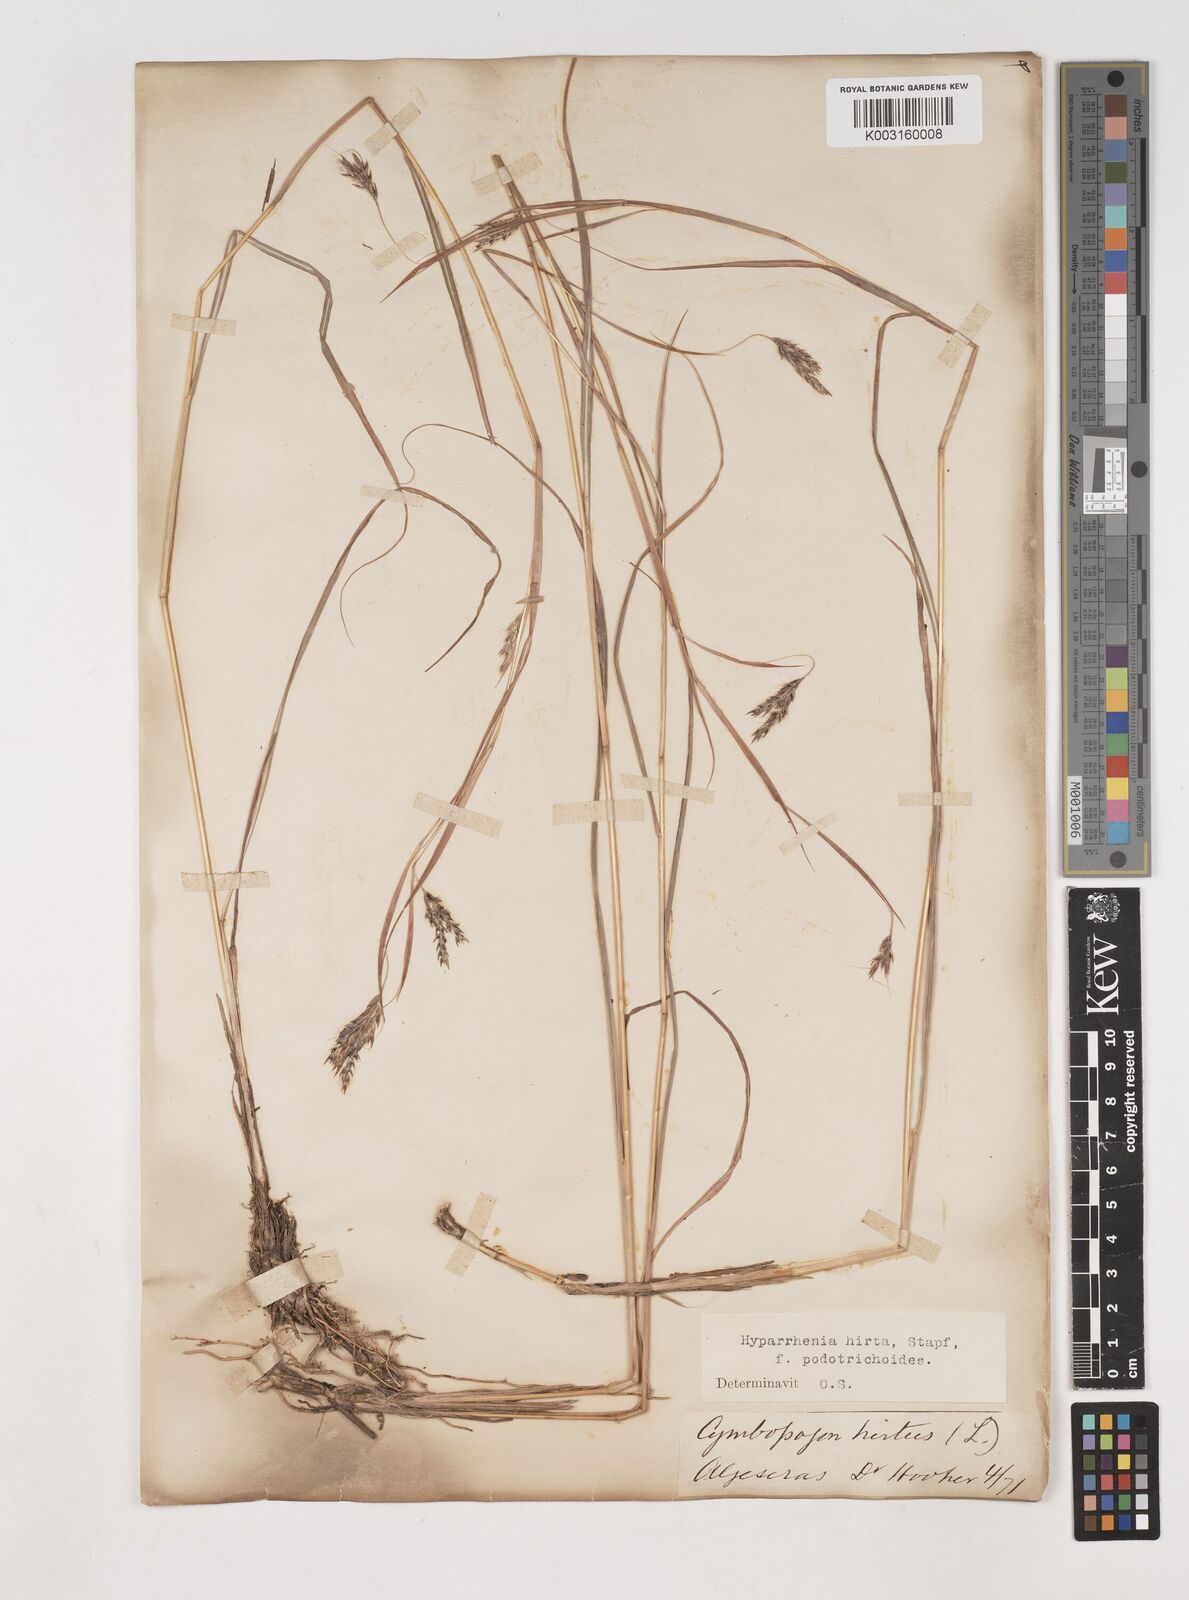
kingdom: Plantae
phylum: Tracheophyta
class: Liliopsida
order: Poales
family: Poaceae
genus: Hyparrhenia
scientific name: Hyparrhenia hirta
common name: Thatching grass
